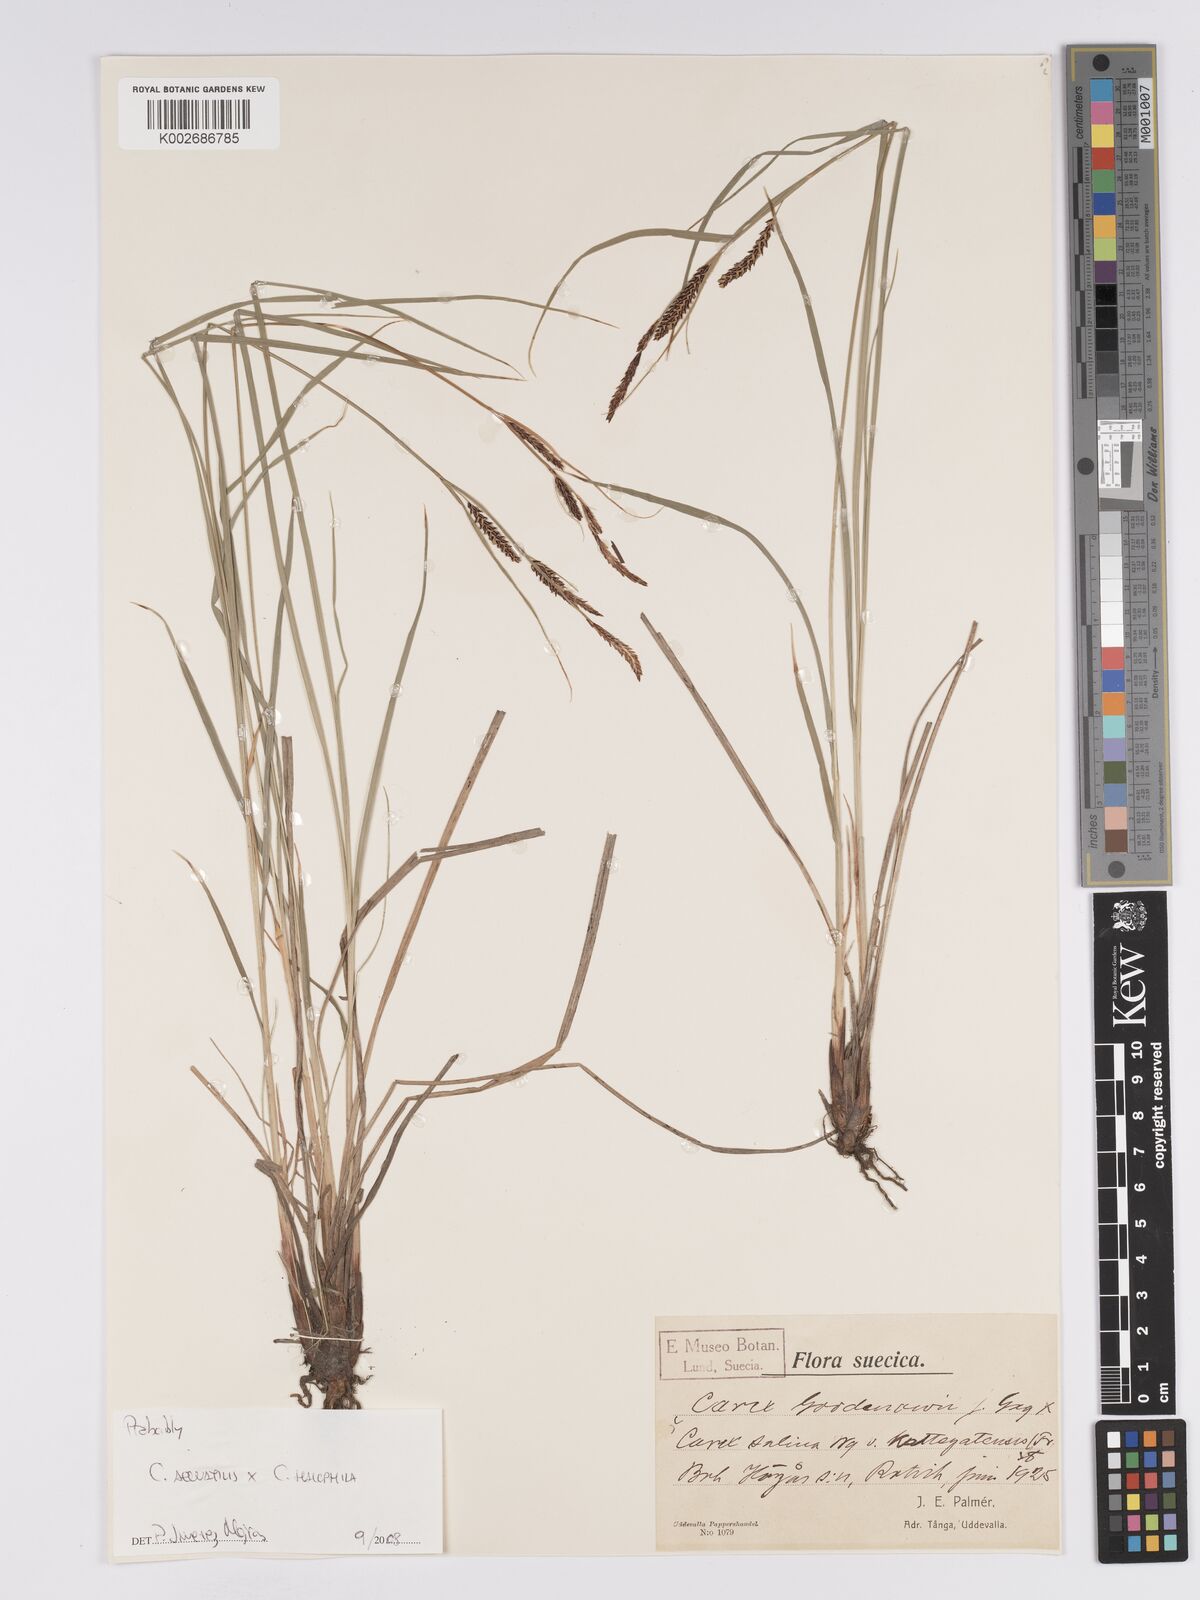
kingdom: Plantae
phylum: Tracheophyta
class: Liliopsida
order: Poales
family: Cyperaceae
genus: Carex
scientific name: Carex aquatilis
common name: Water sedge
